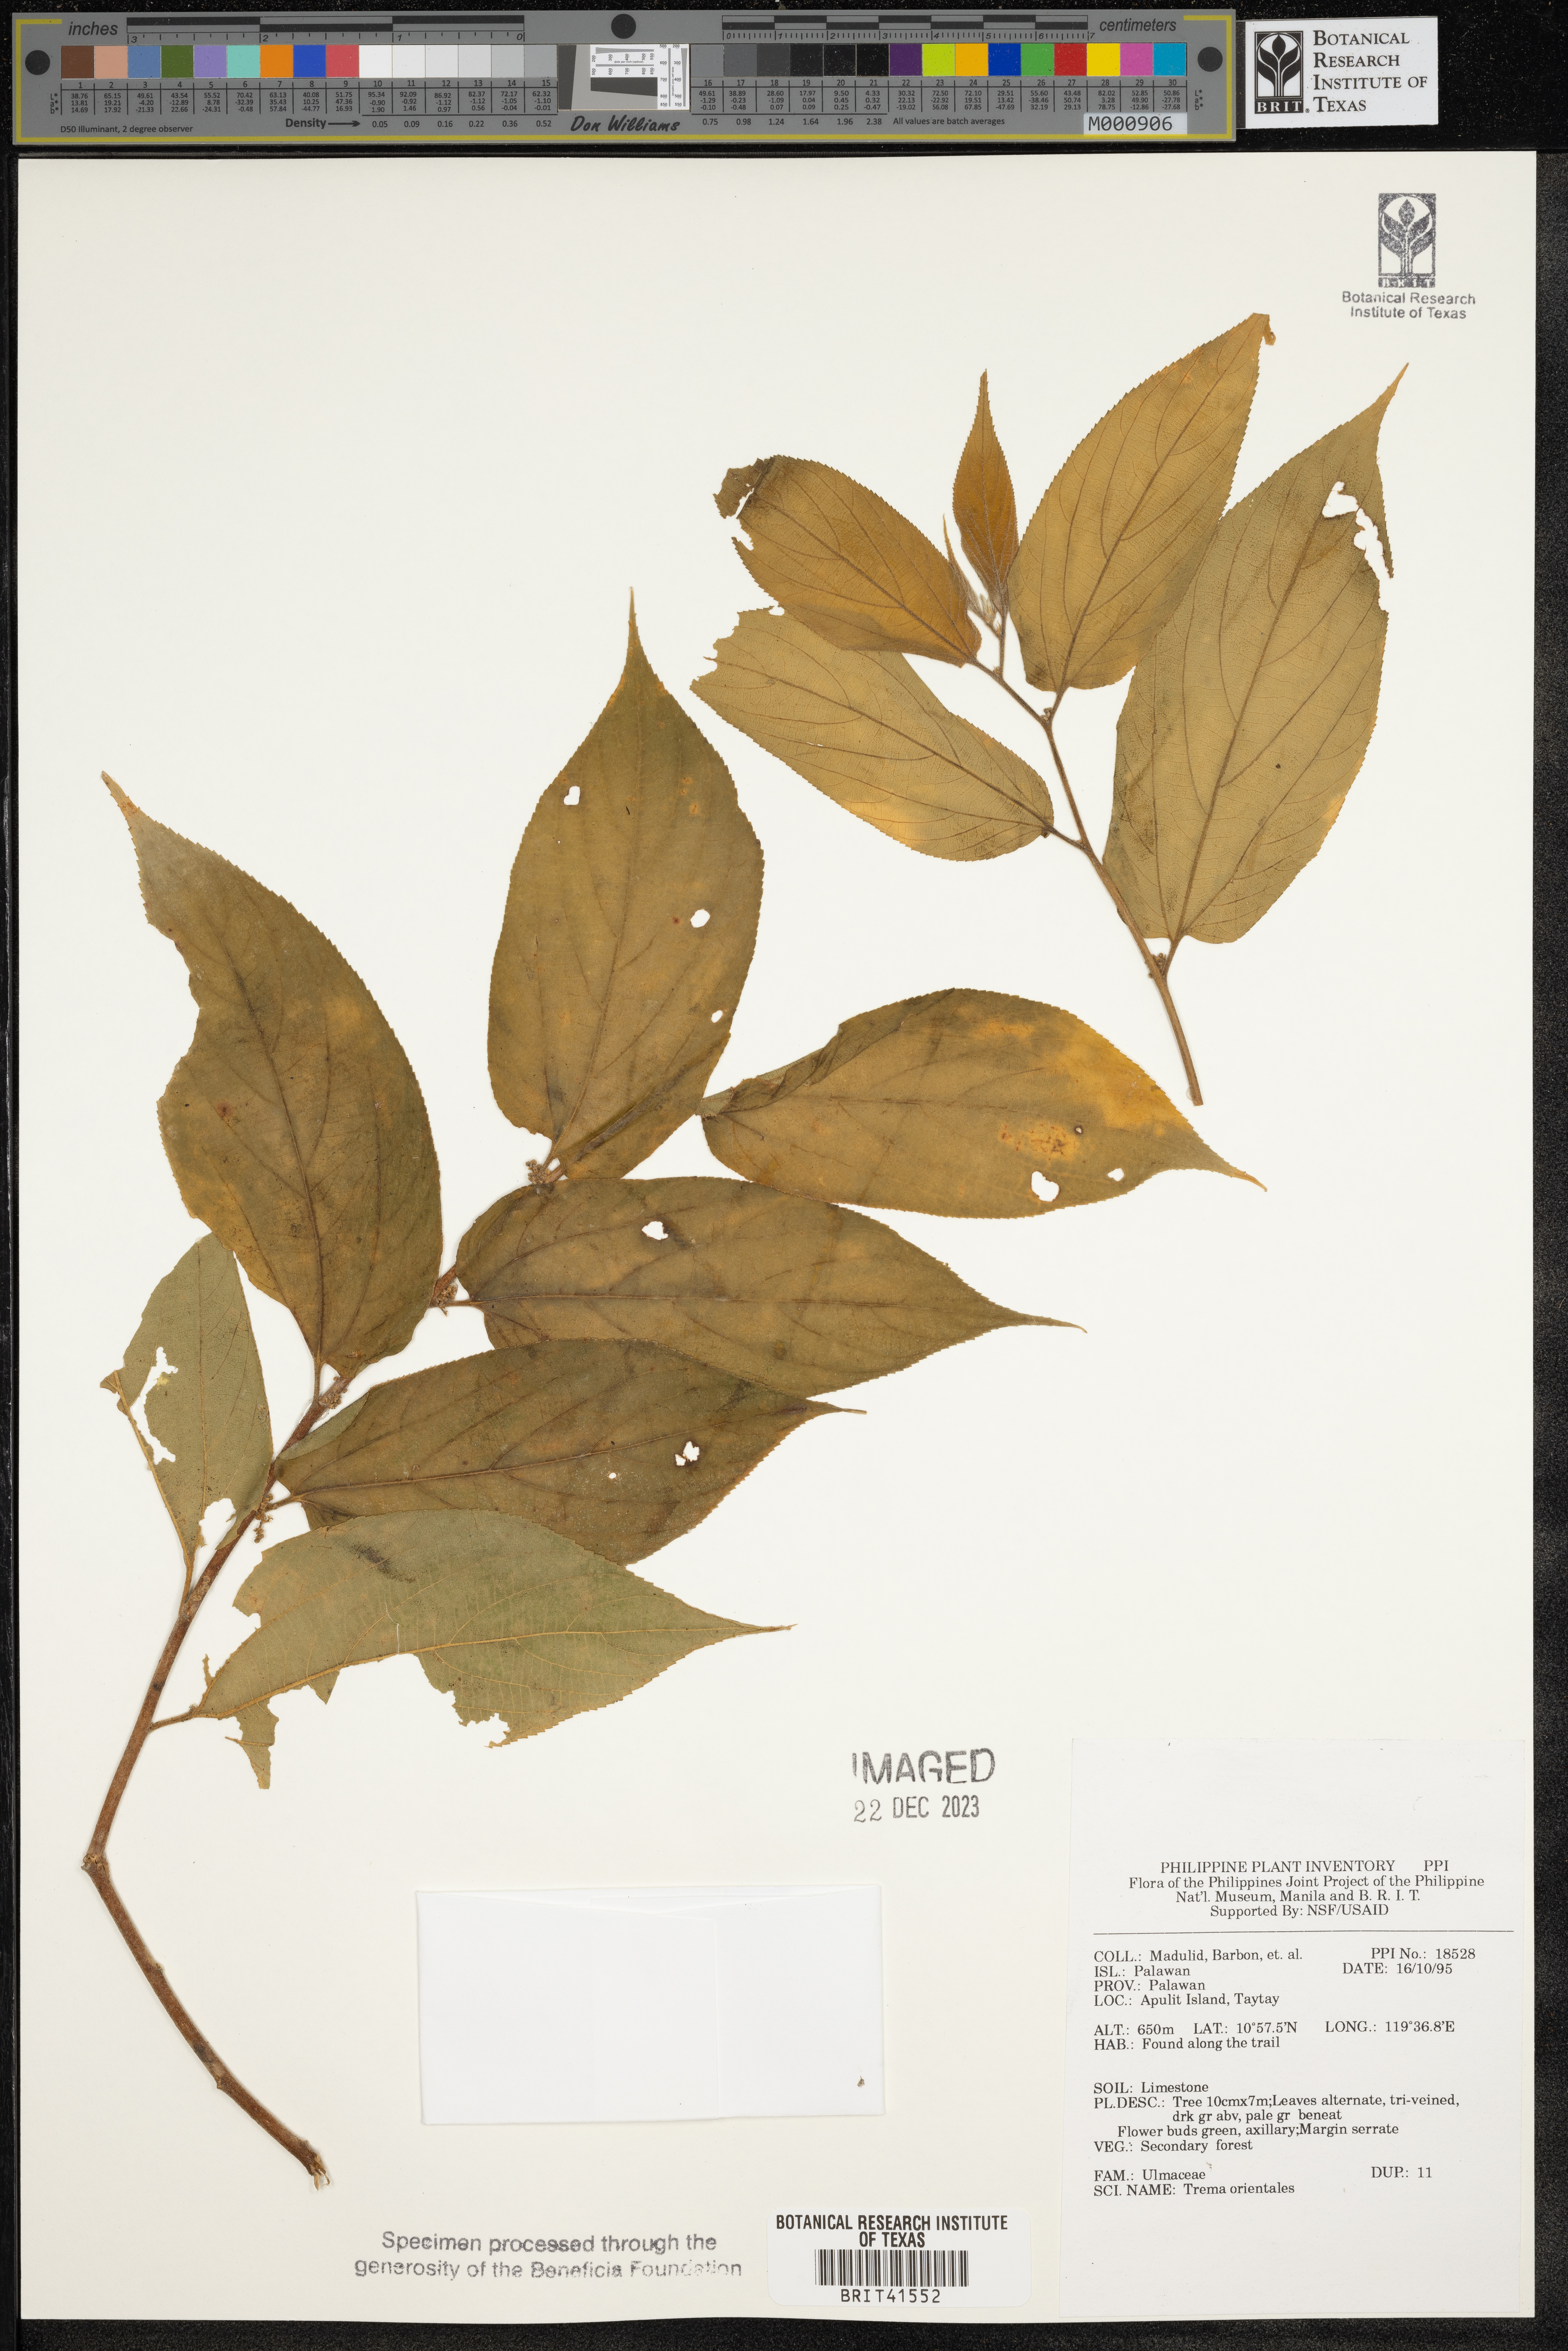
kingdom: Plantae
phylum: Tracheophyta
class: Magnoliopsida
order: Rosales
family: Cannabaceae
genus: Trema
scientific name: Trema orientale
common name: Indian charcoal tree
